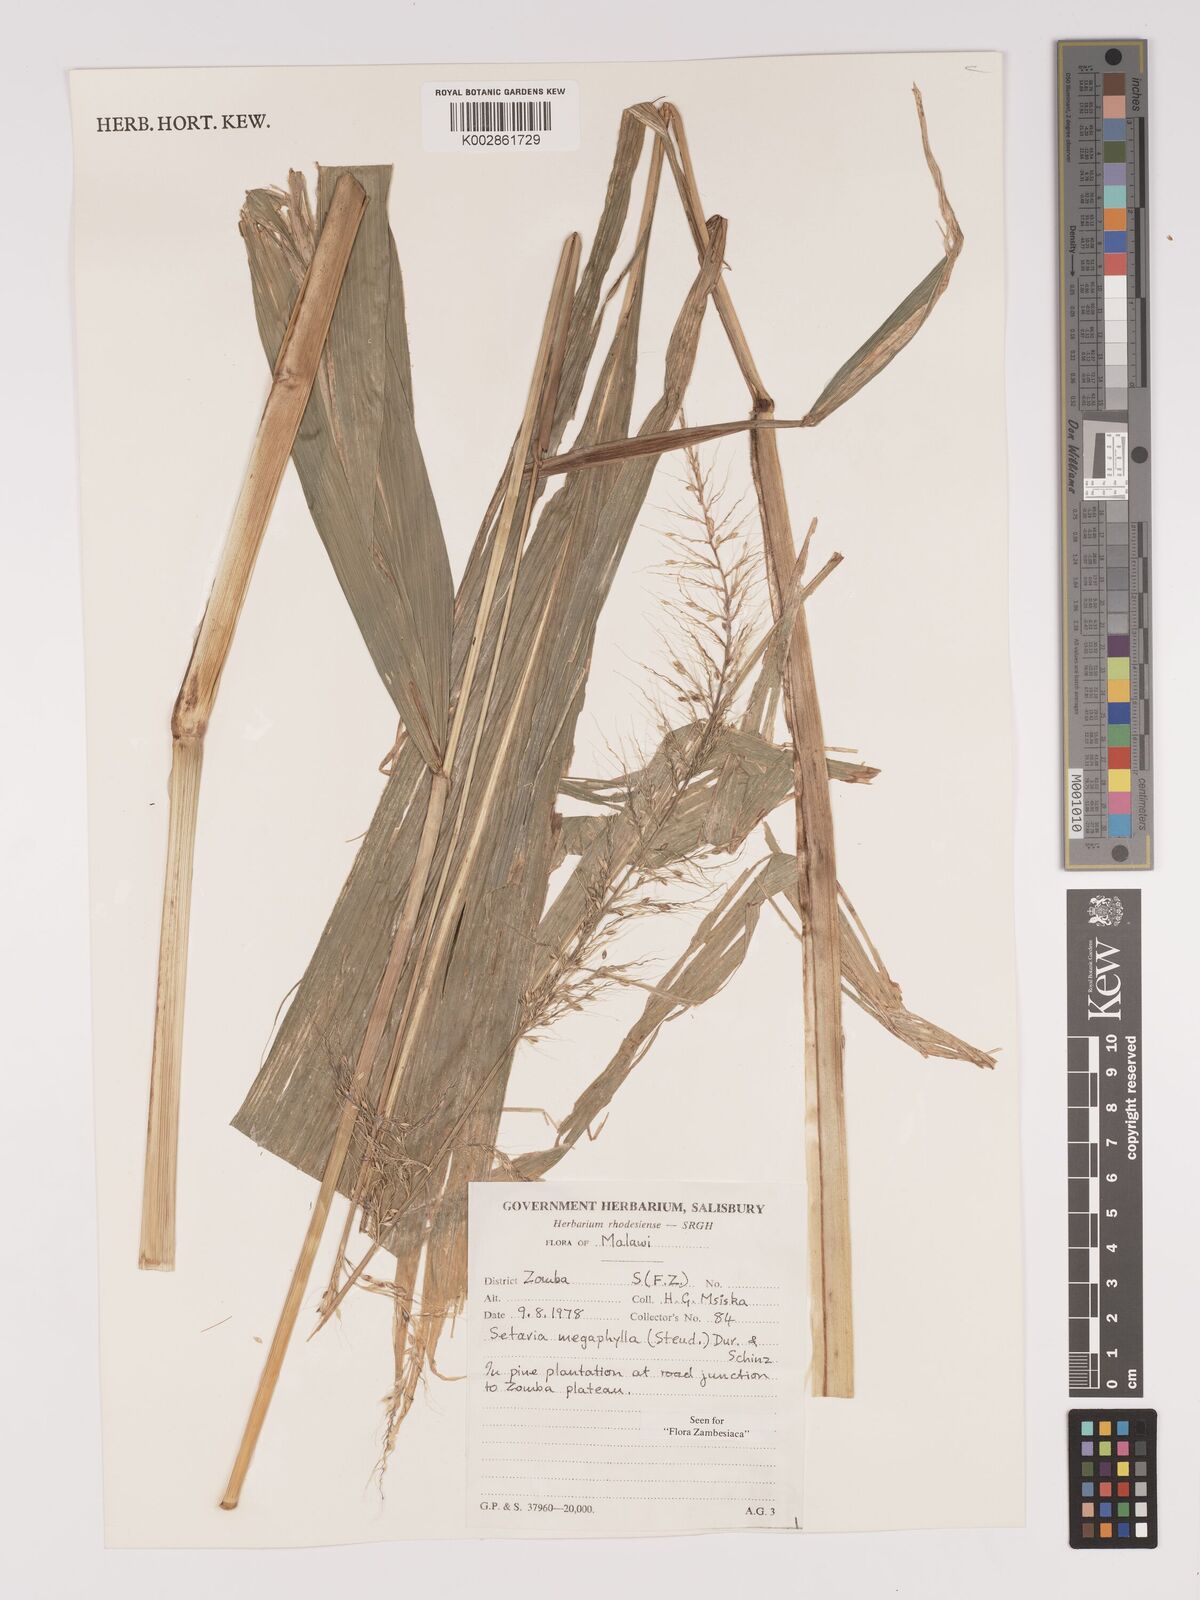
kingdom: Plantae
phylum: Tracheophyta
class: Liliopsida
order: Poales
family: Poaceae
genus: Setaria
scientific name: Setaria megaphylla
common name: Bigleaf bristlegrass
